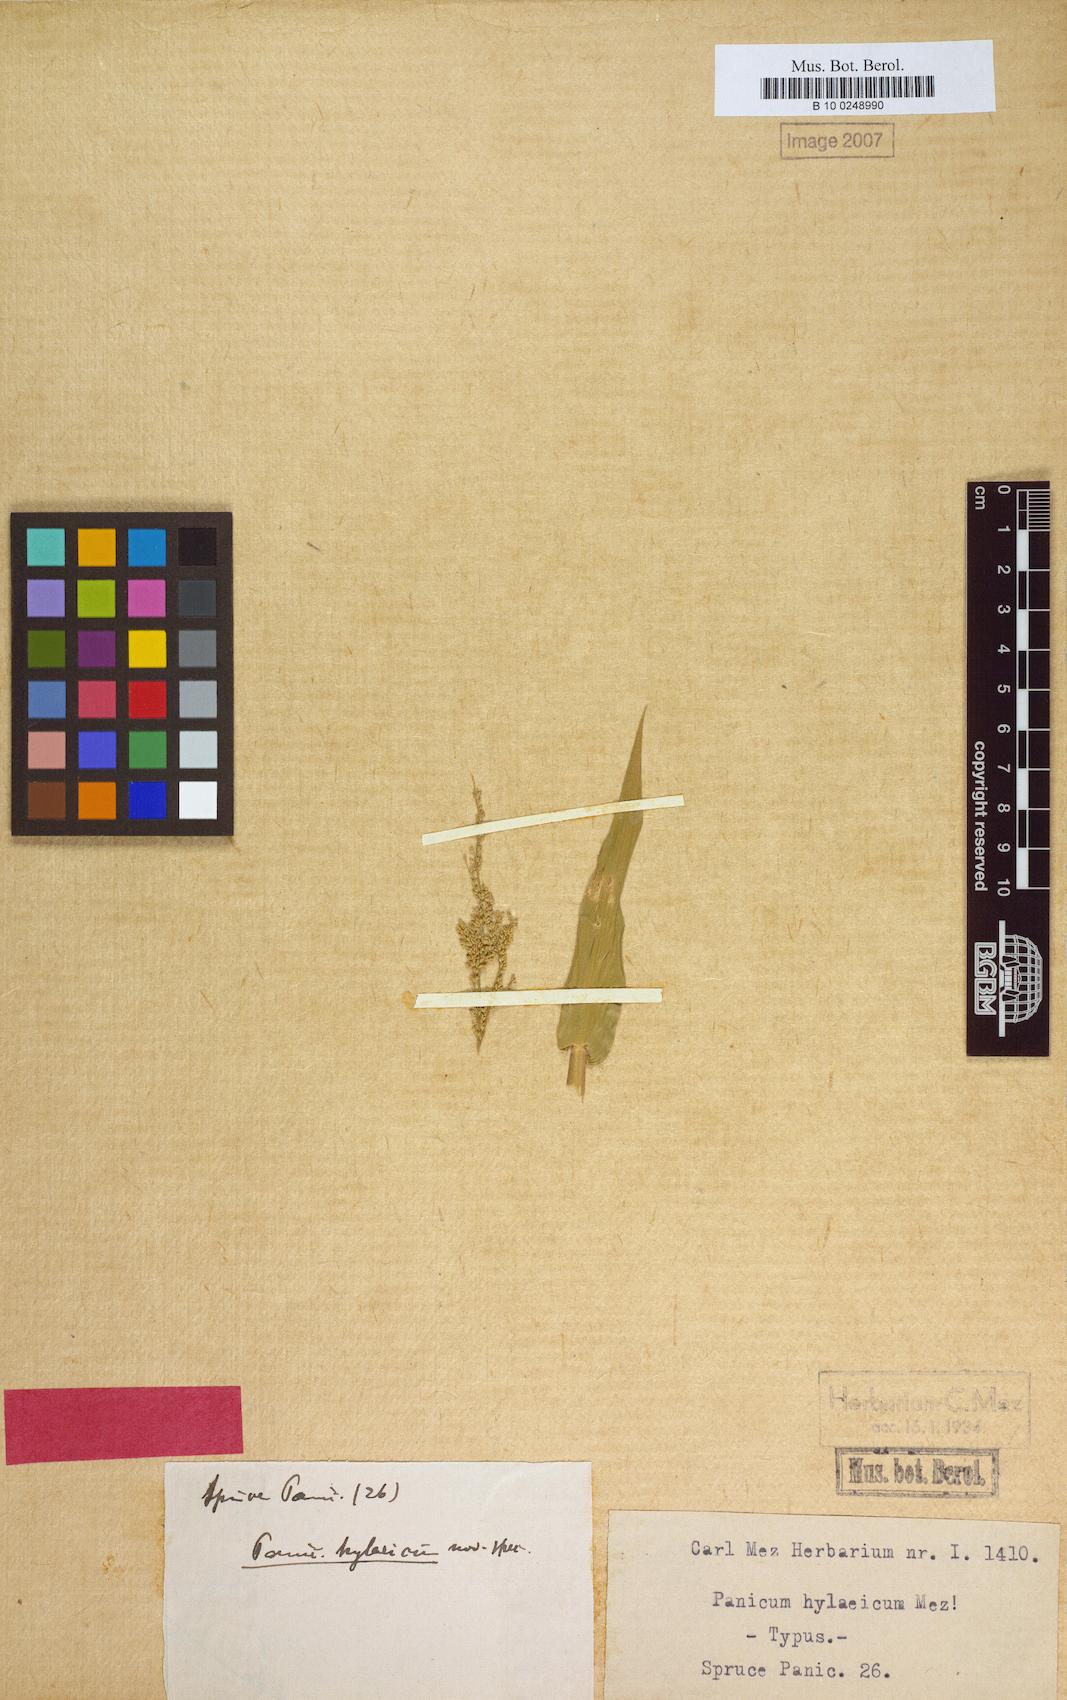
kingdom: Plantae
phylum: Tracheophyta
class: Liliopsida
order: Poales
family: Poaceae
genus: Rugoloa
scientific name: Rugoloa hylaeica
